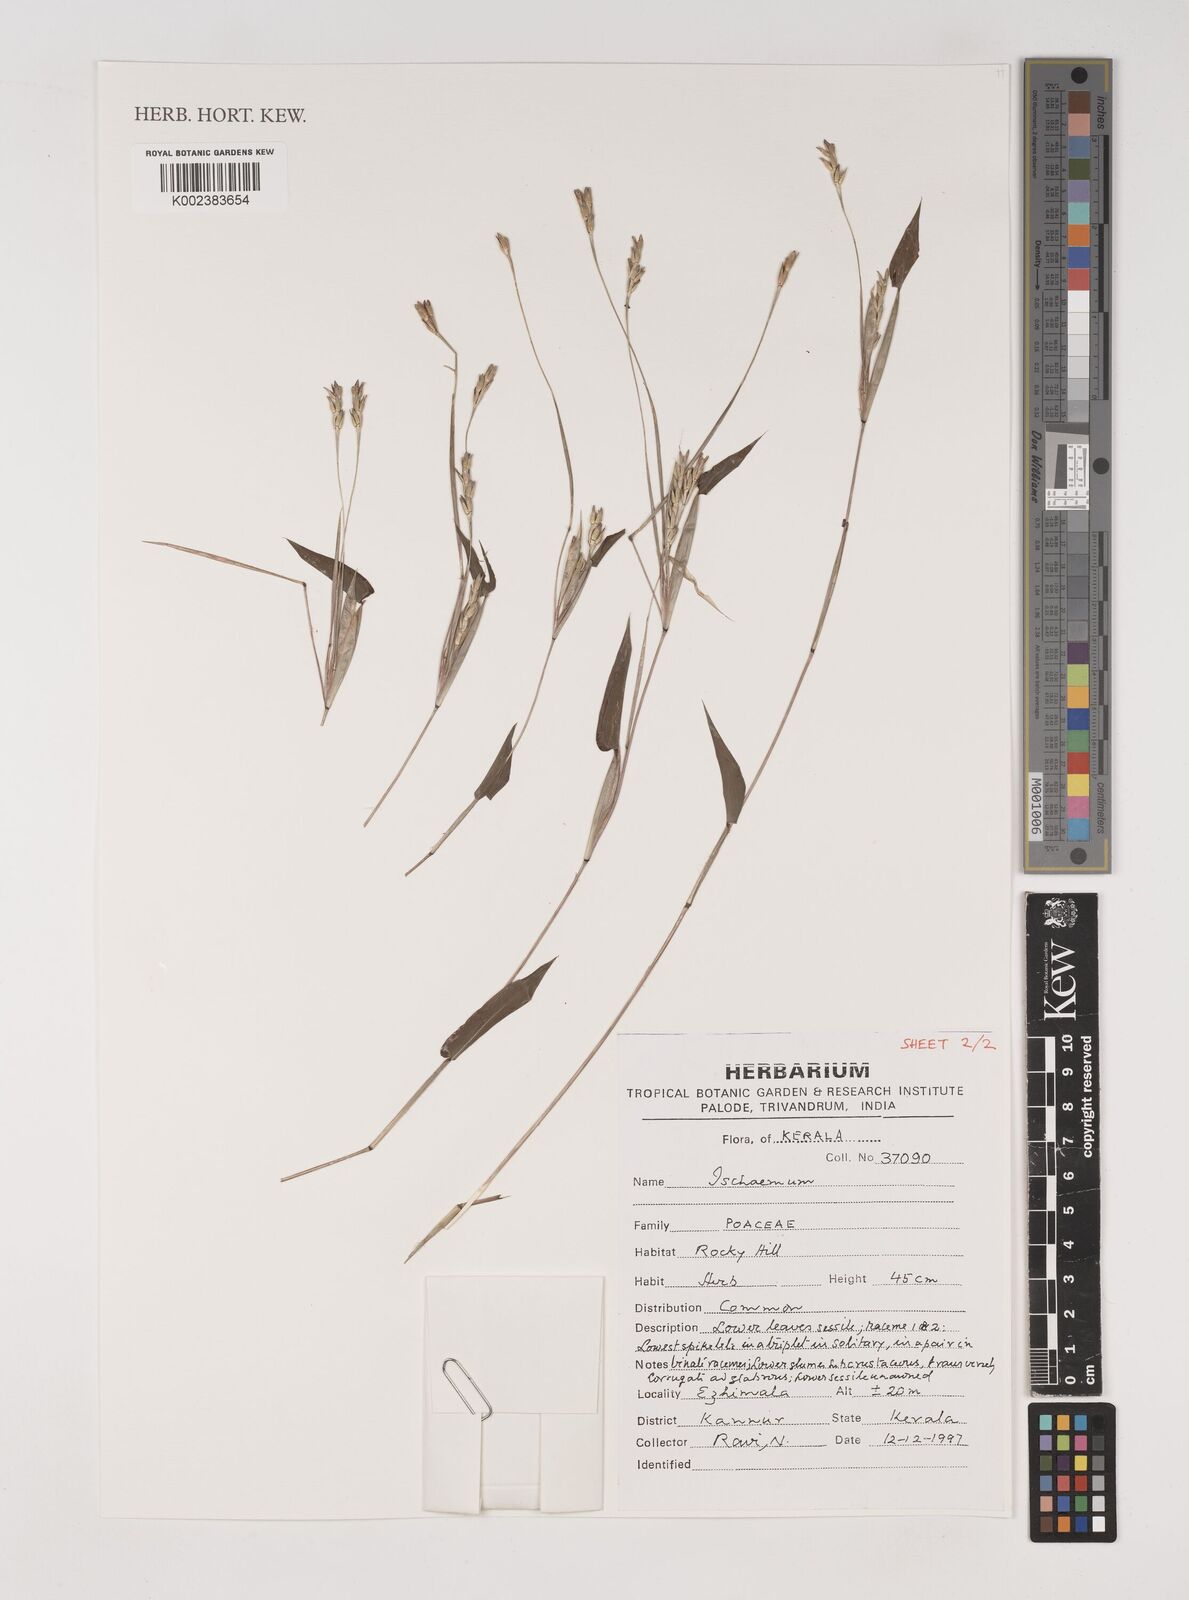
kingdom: Plantae
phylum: Tracheophyta
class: Liliopsida
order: Poales
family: Poaceae
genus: Ischaemum
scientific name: Ischaemum
